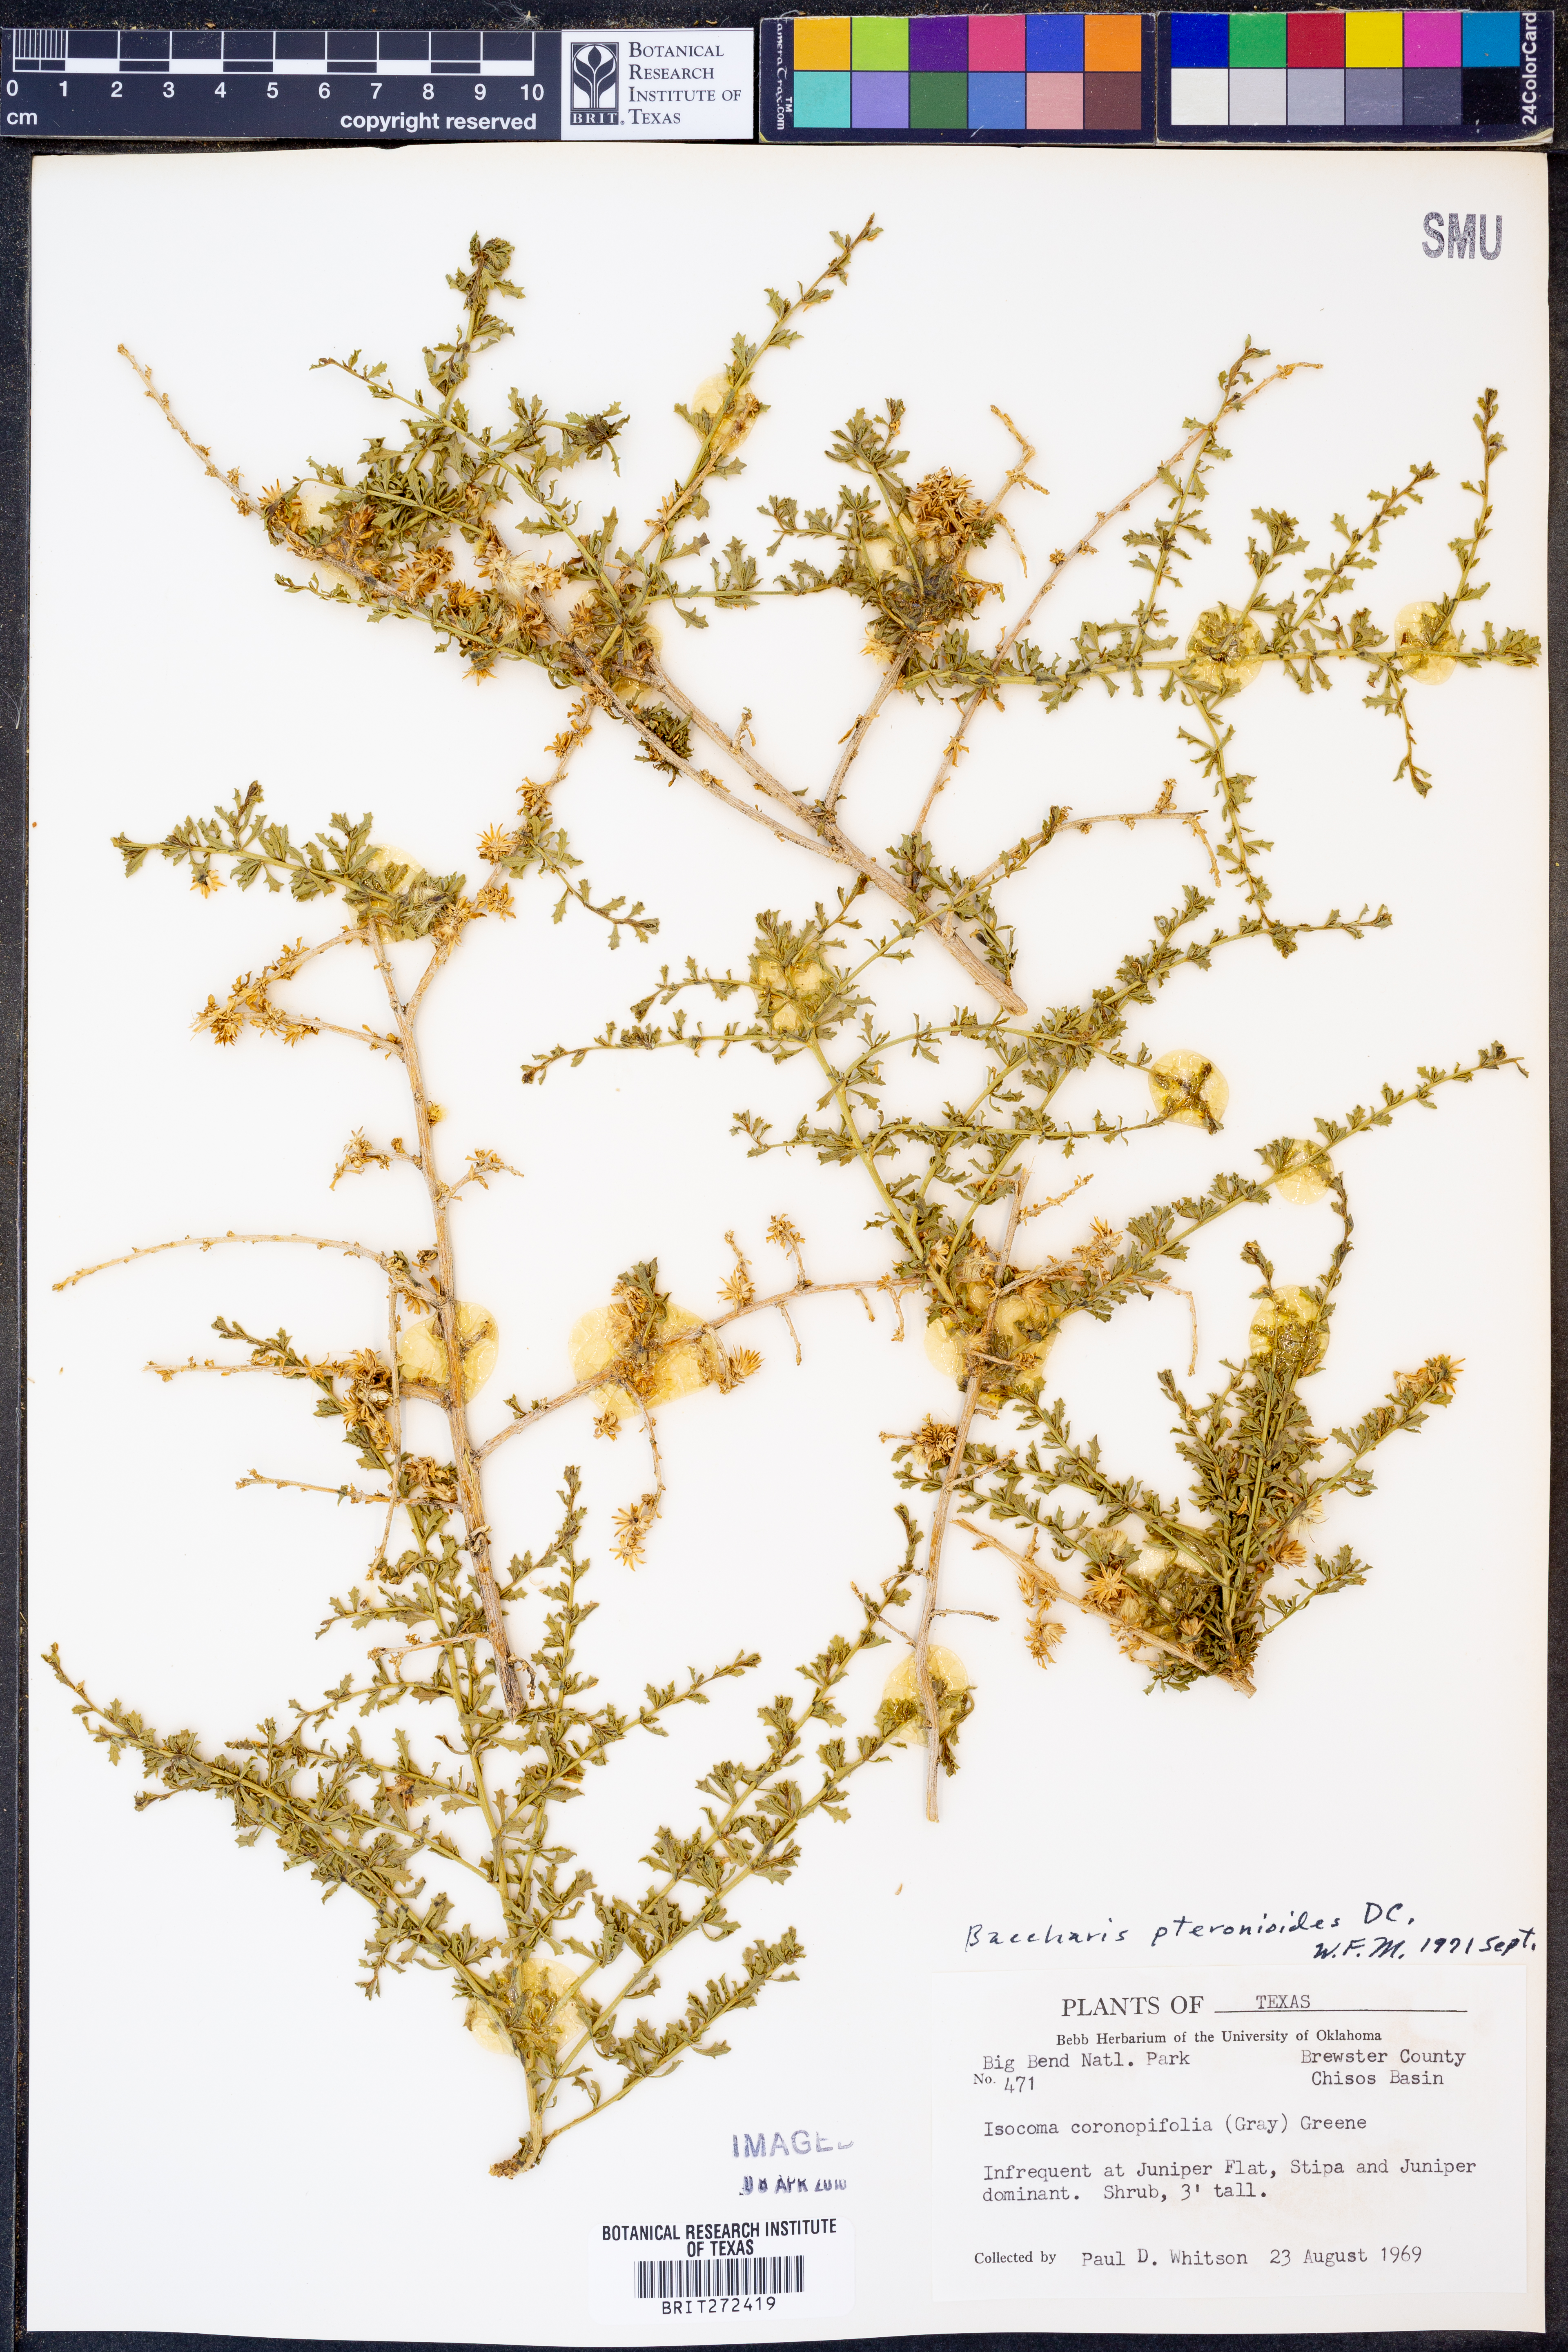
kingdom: Plantae
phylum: Tracheophyta
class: Magnoliopsida
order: Asterales
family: Asteraceae
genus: Baccharis
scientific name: Baccharis pteronioides
